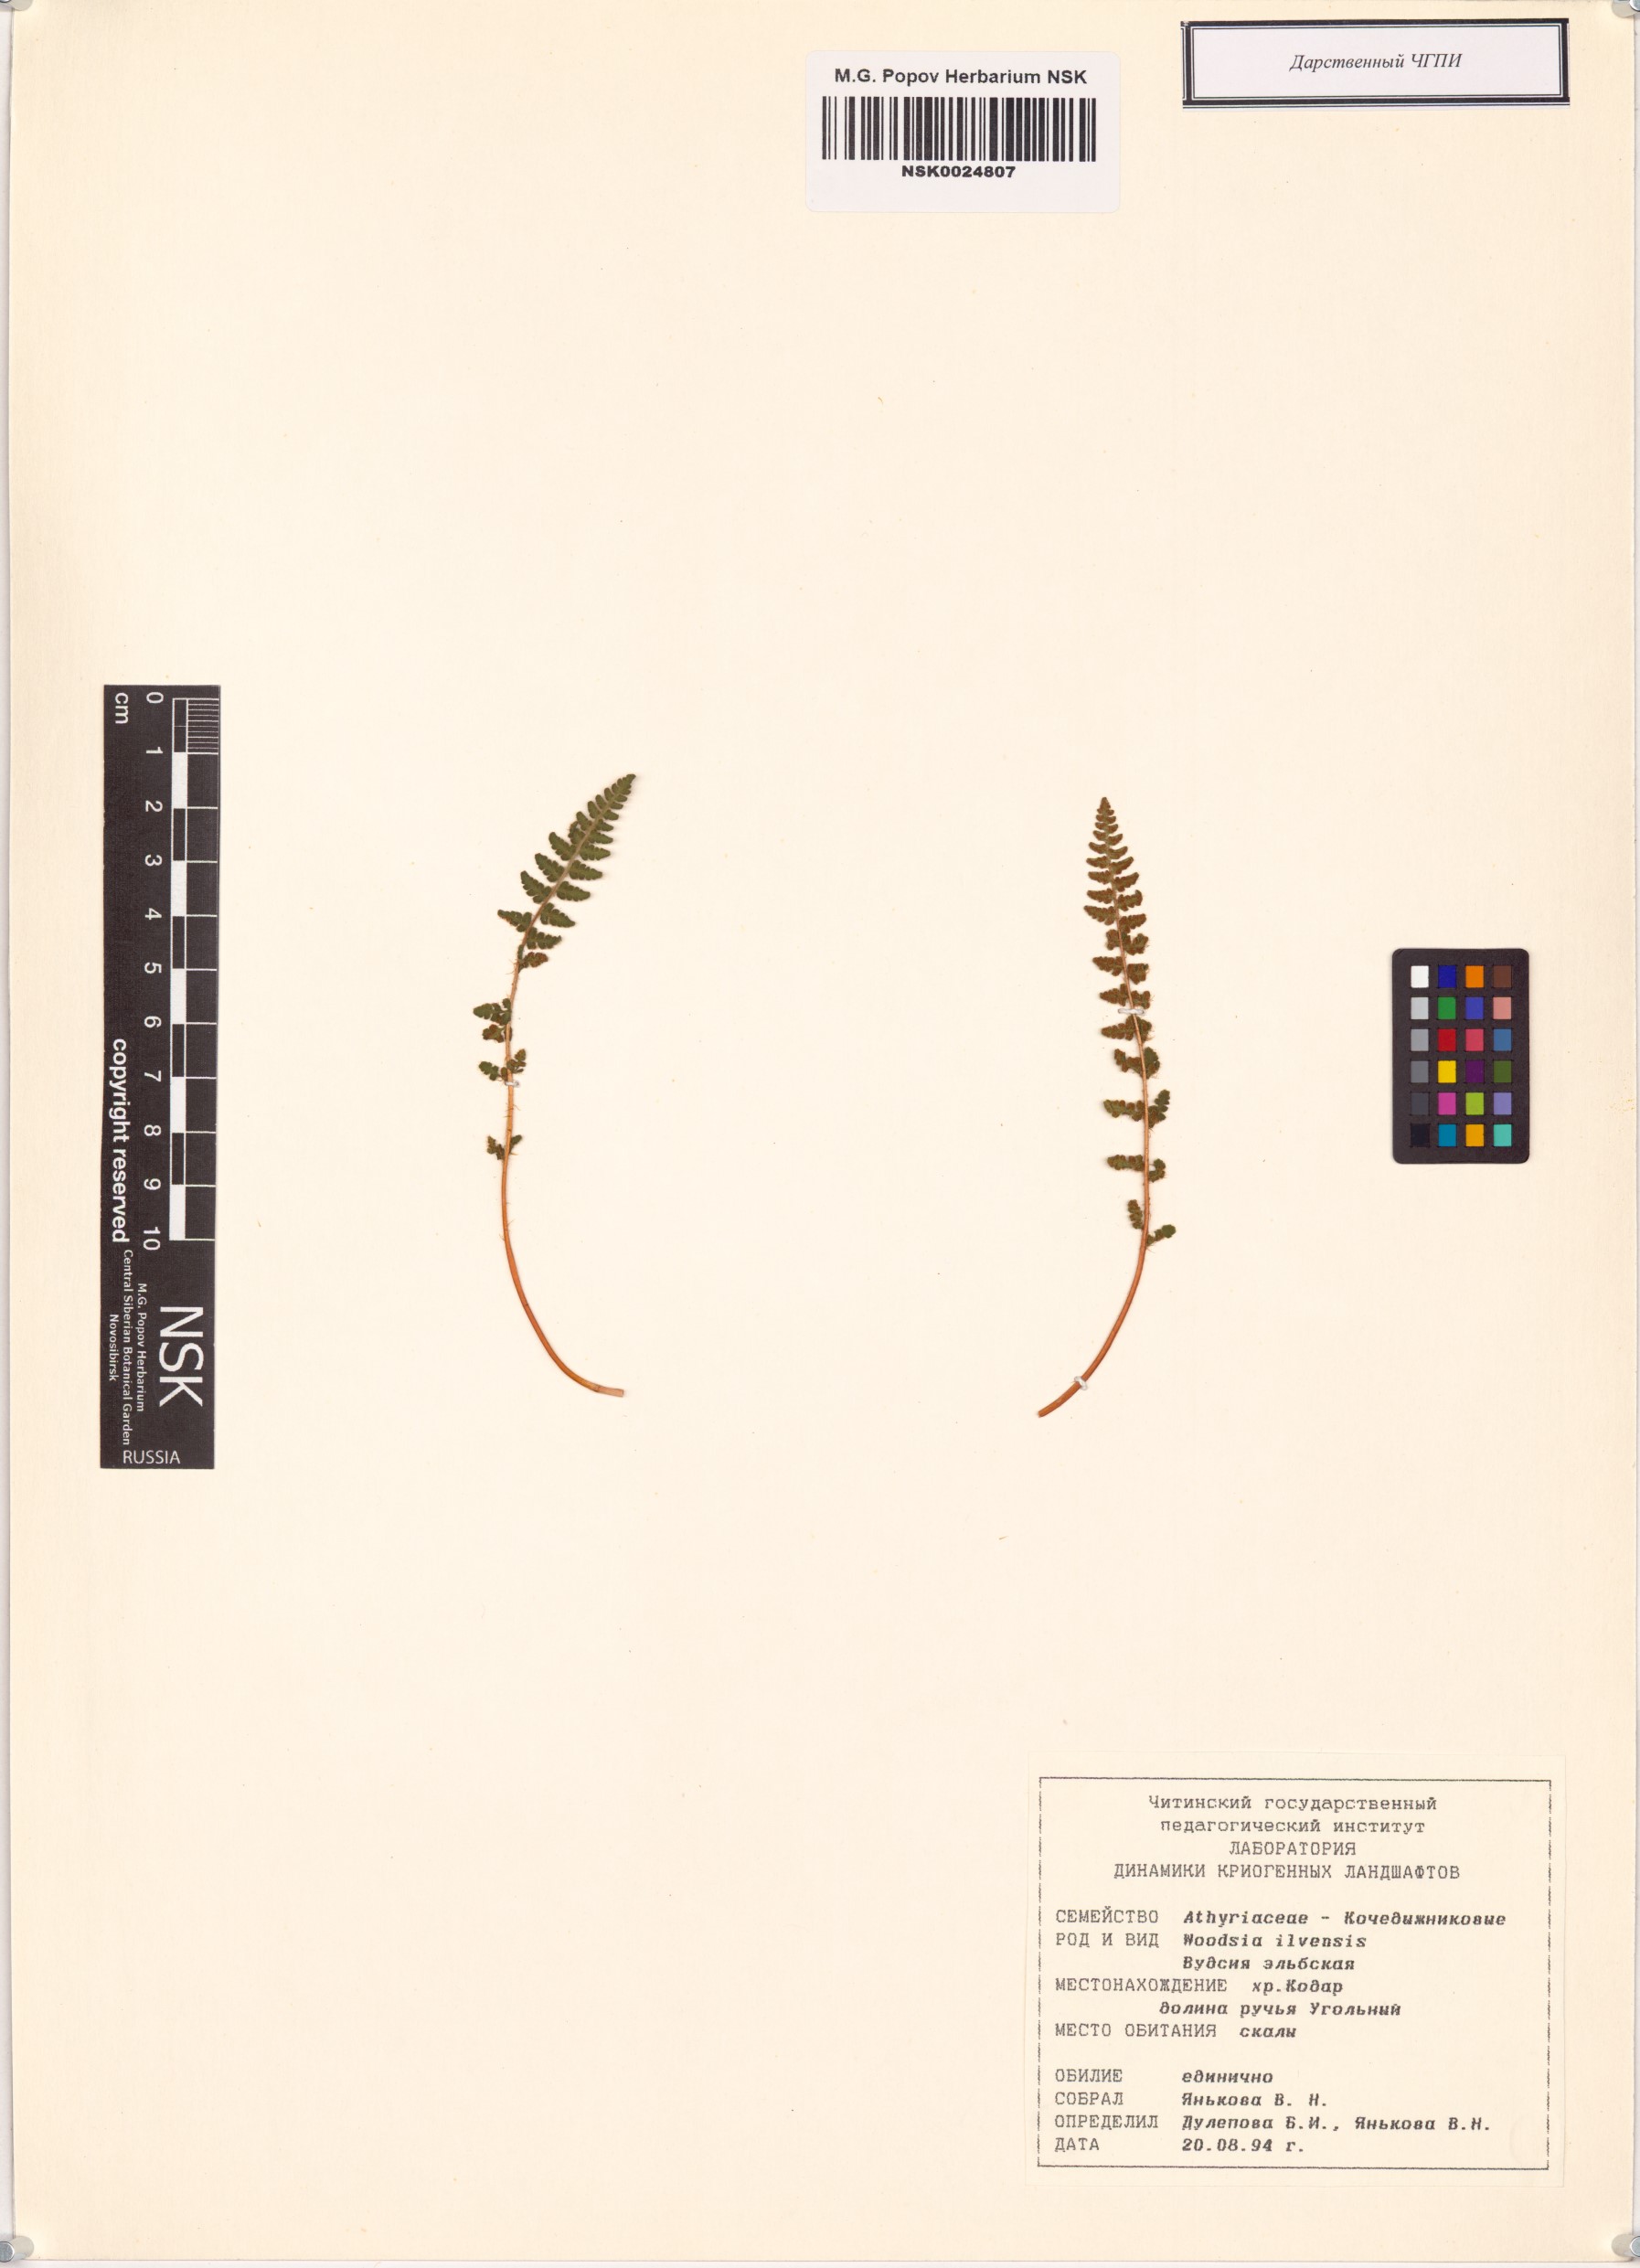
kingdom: Plantae
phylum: Tracheophyta
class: Polypodiopsida
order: Polypodiales
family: Woodsiaceae
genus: Woodsia
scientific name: Woodsia ilvensis
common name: Fragrant woodsia
